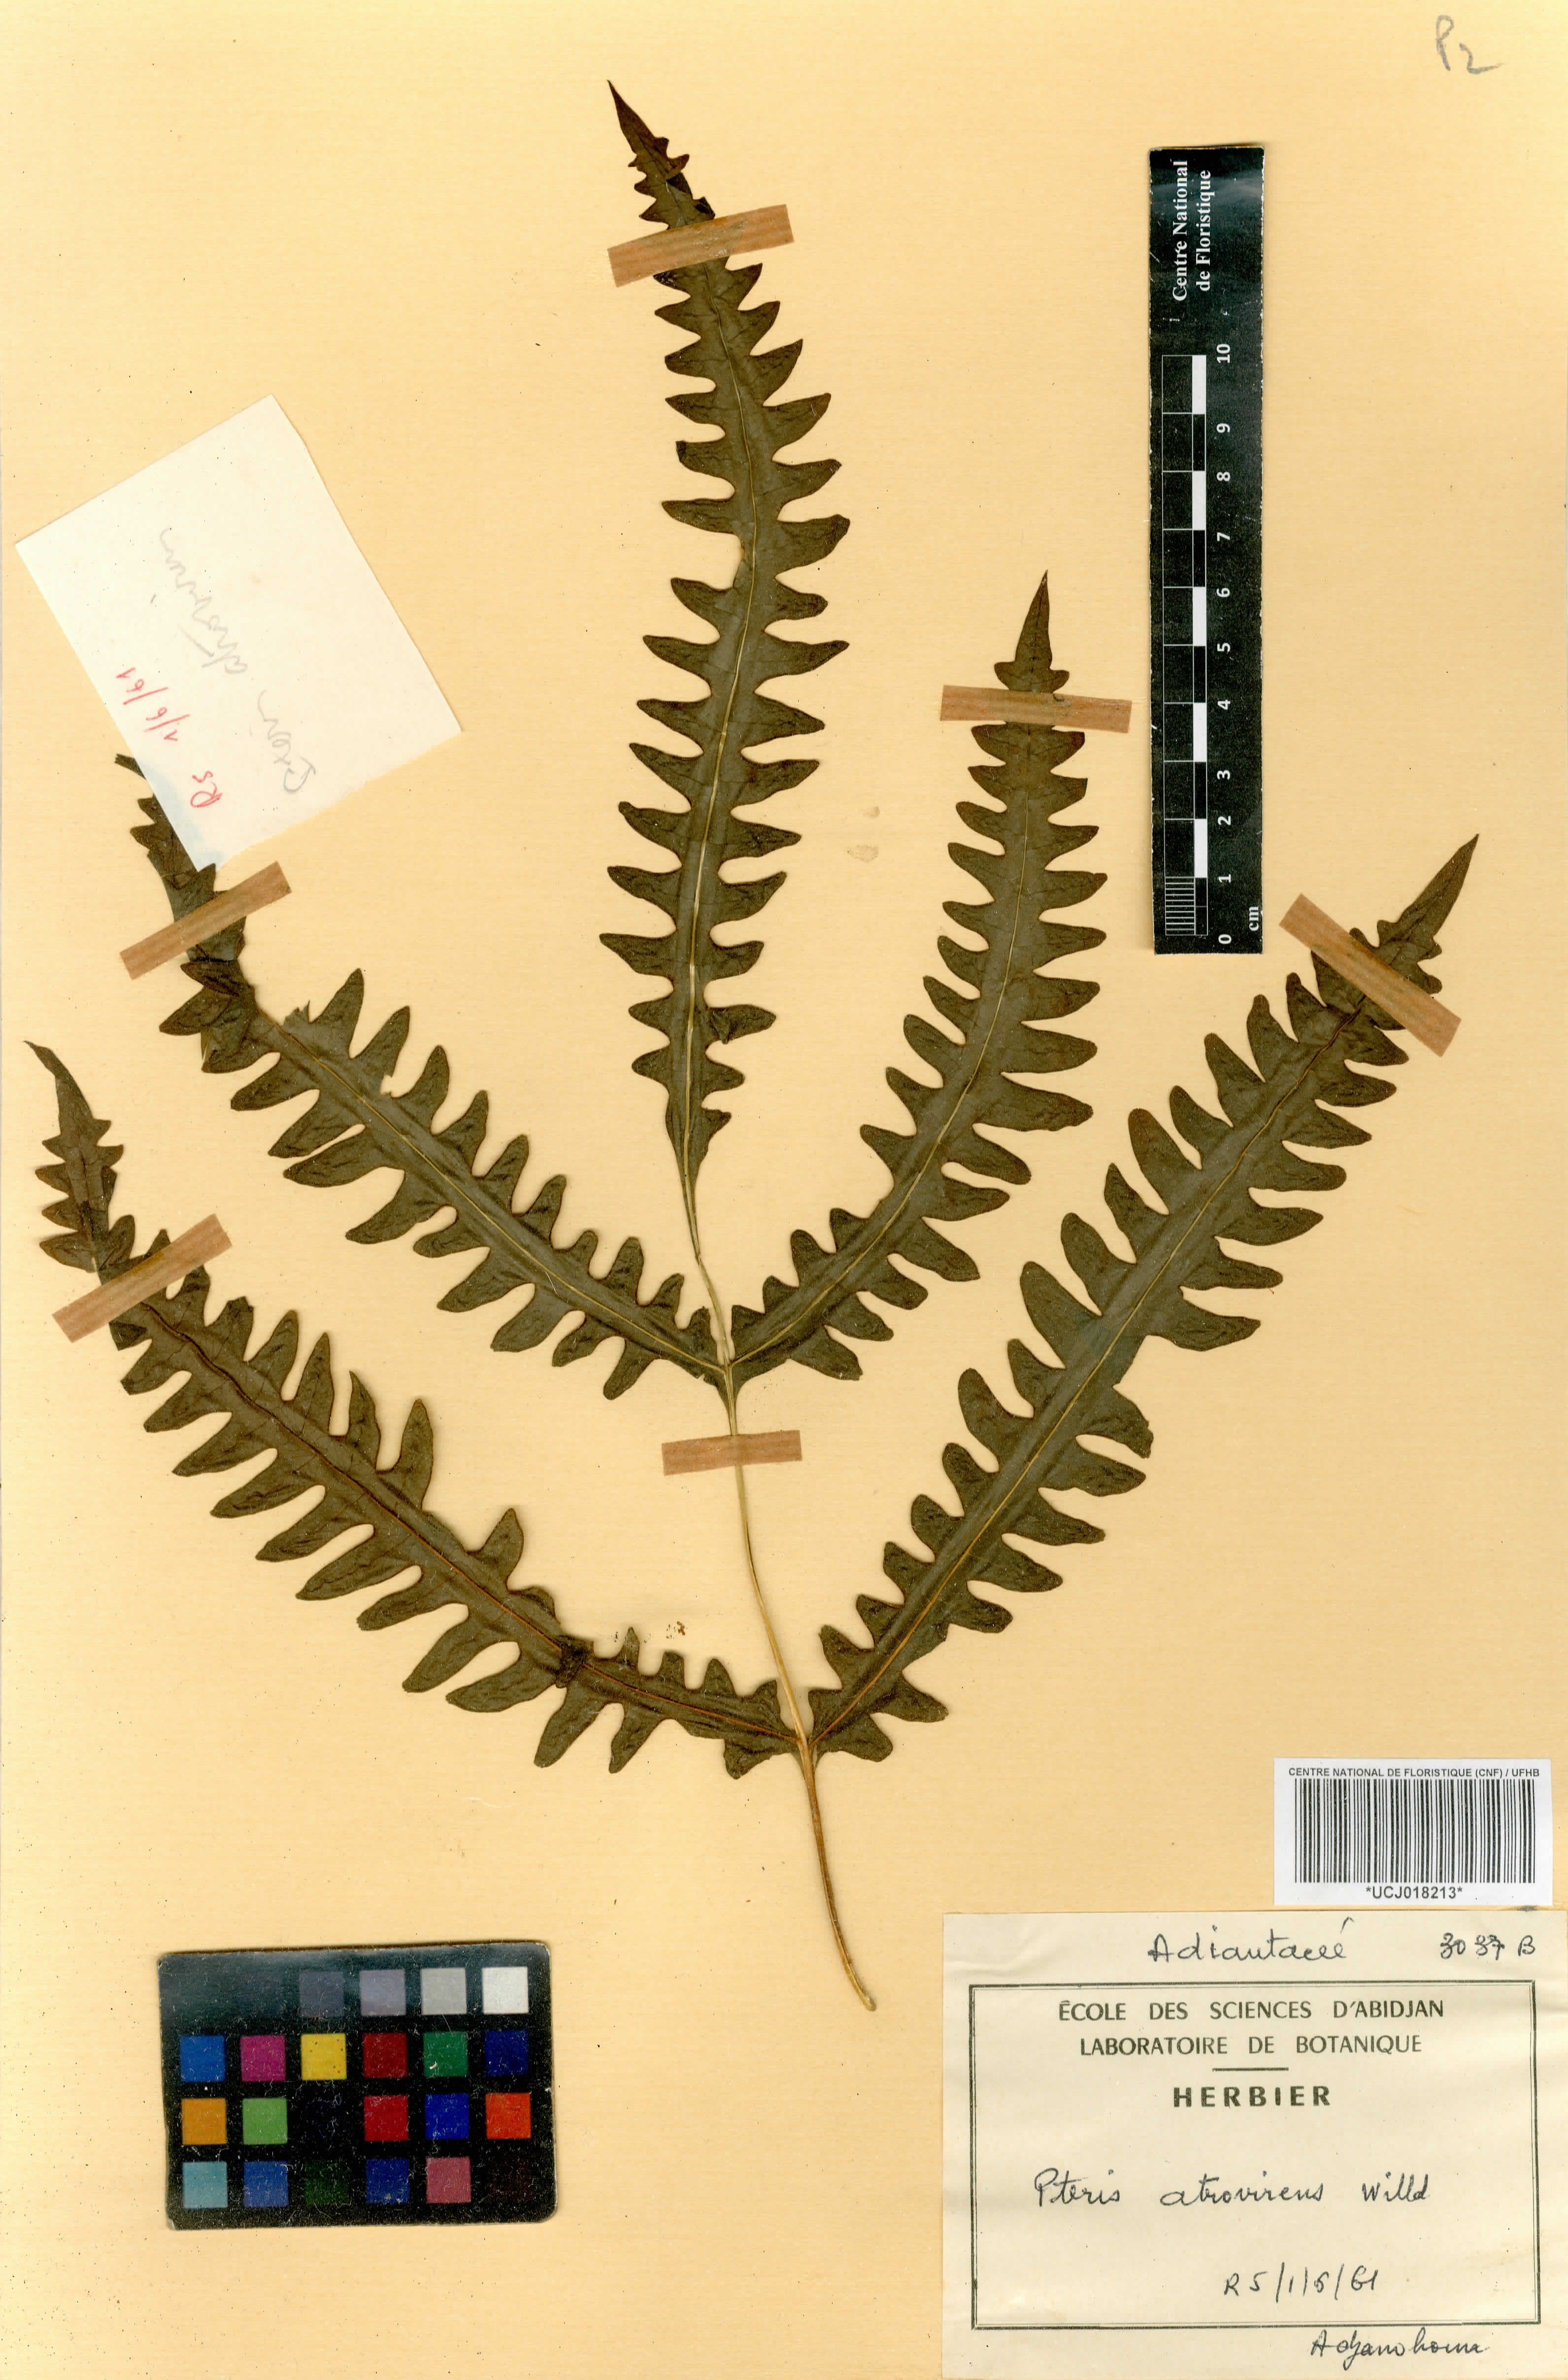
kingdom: Plantae
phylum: Tracheophyta
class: Polypodiopsida
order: Polypodiales
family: Pteridaceae
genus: Pteris
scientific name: Pteris atrovirens
